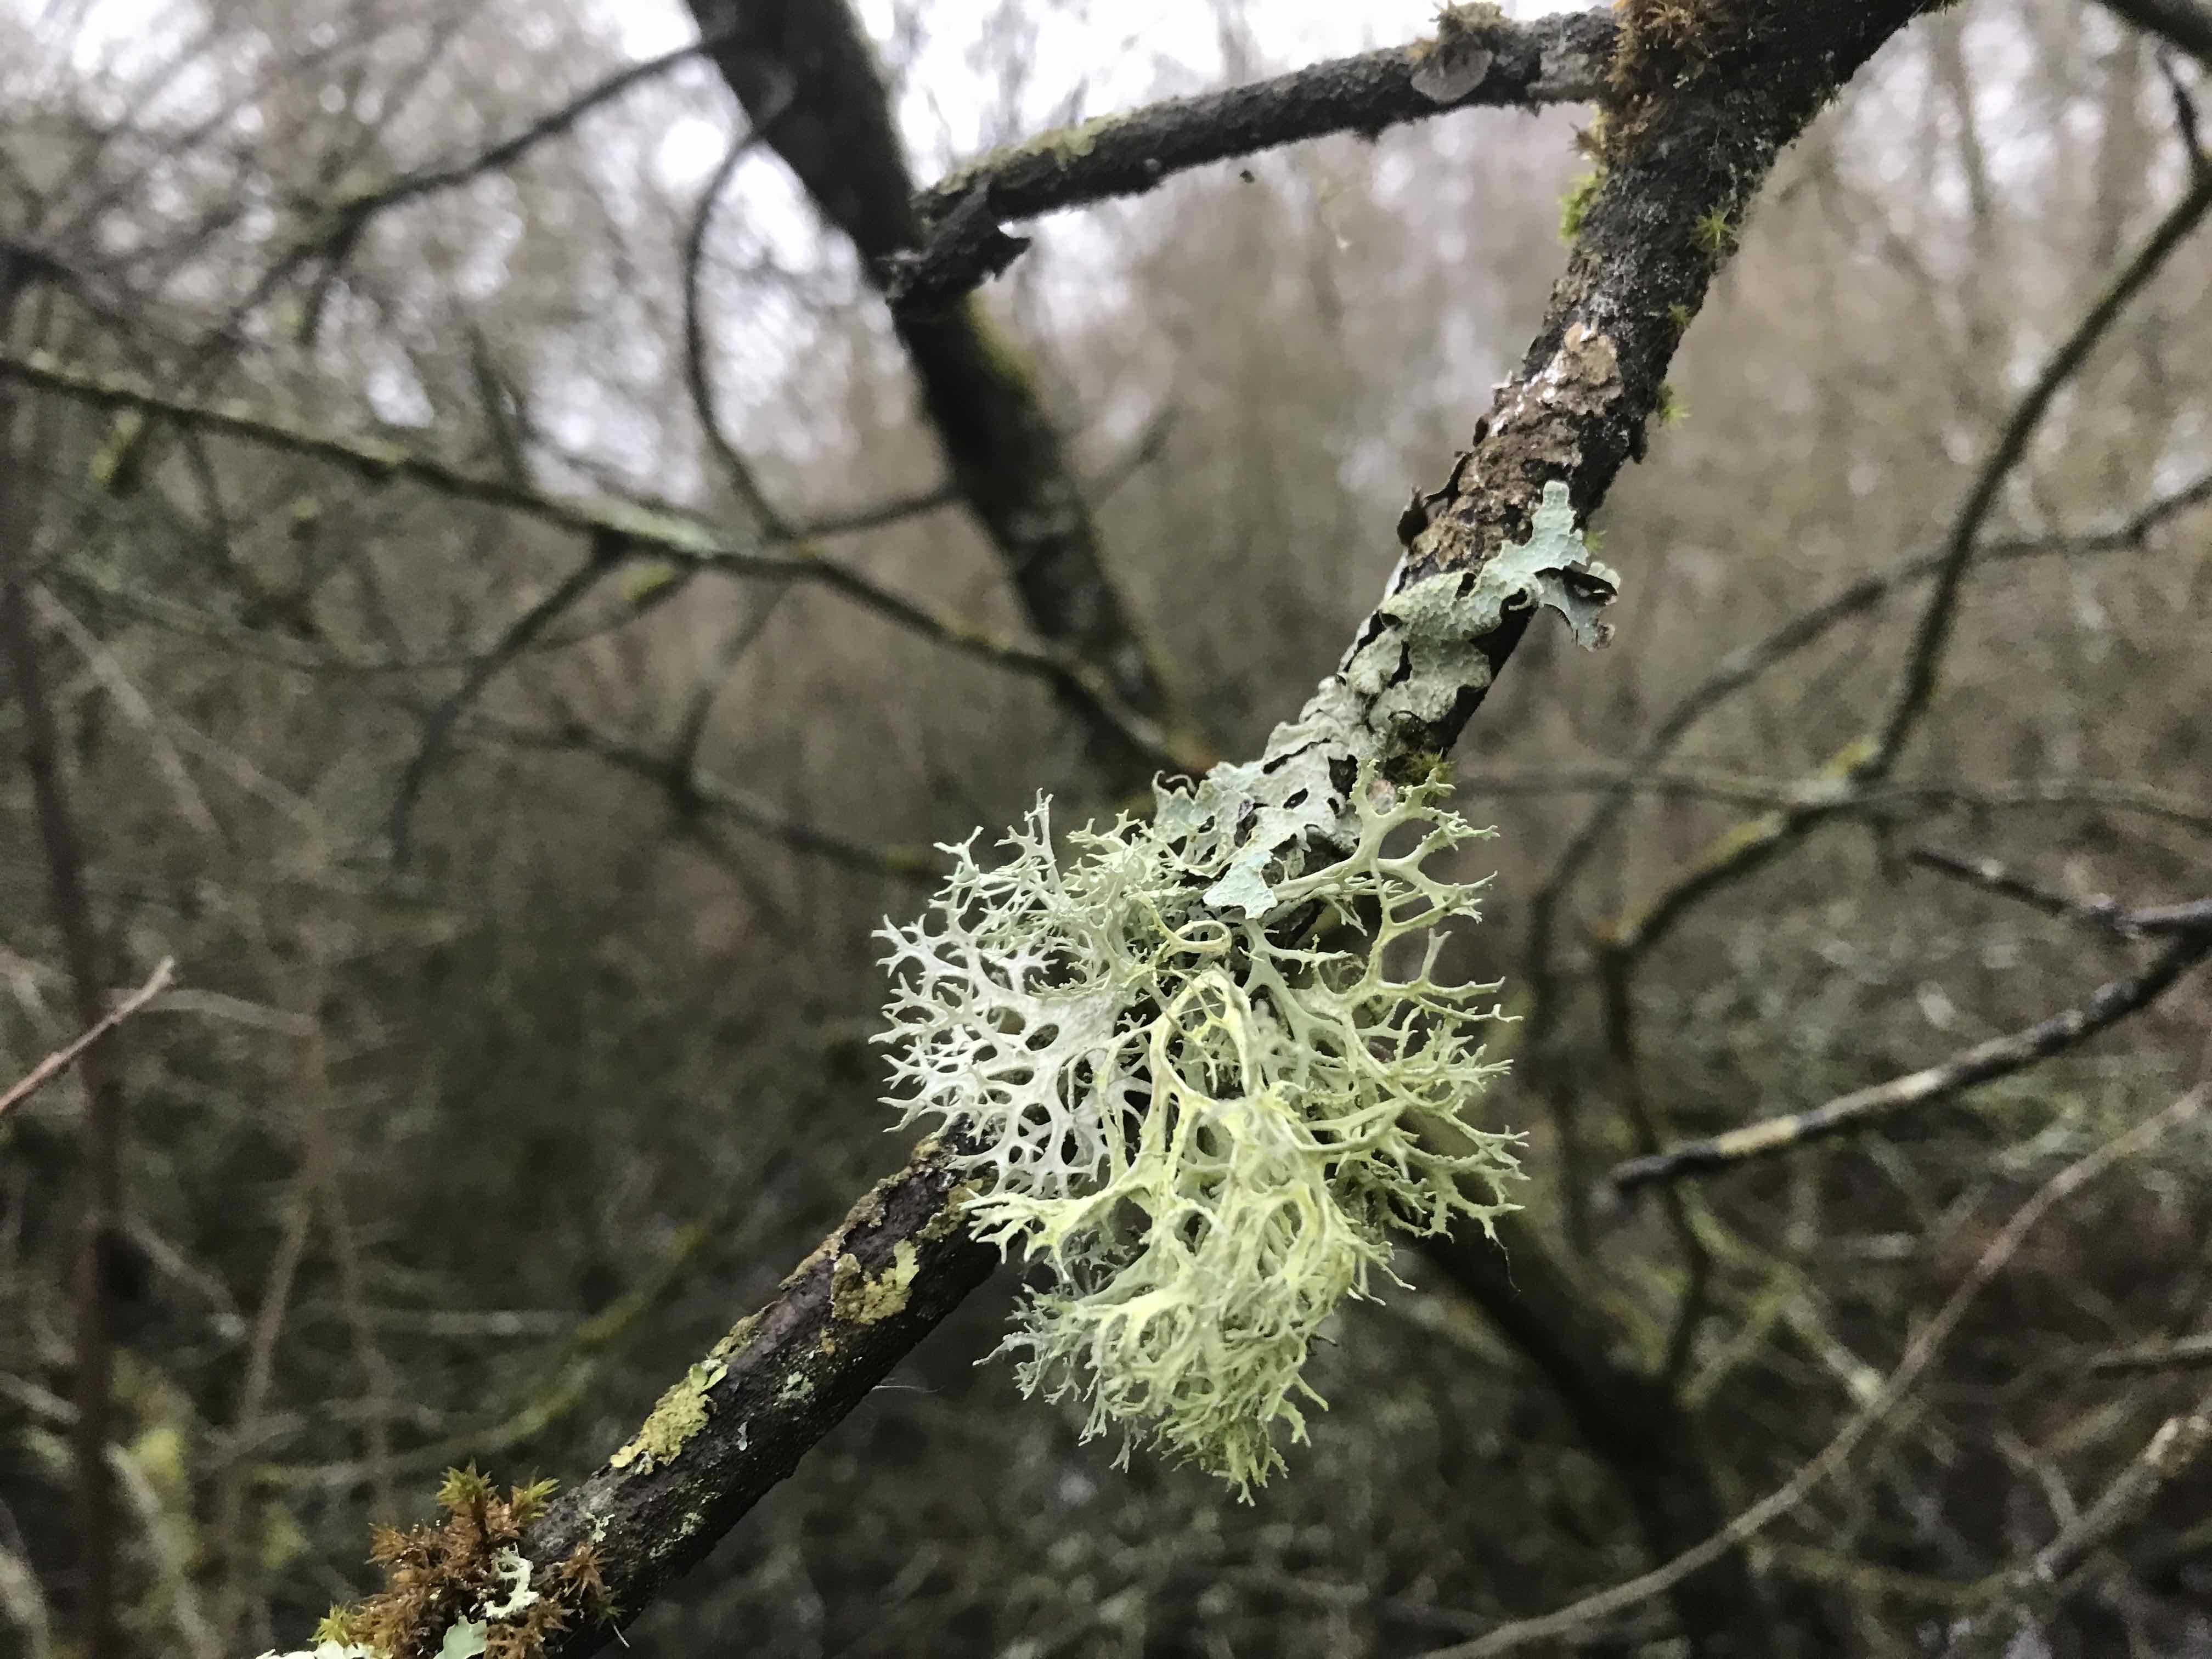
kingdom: Fungi
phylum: Ascomycota
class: Lecanoromycetes
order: Lecanorales
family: Parmeliaceae
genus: Evernia
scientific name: Evernia prunastri
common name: almindelig slåenlav
